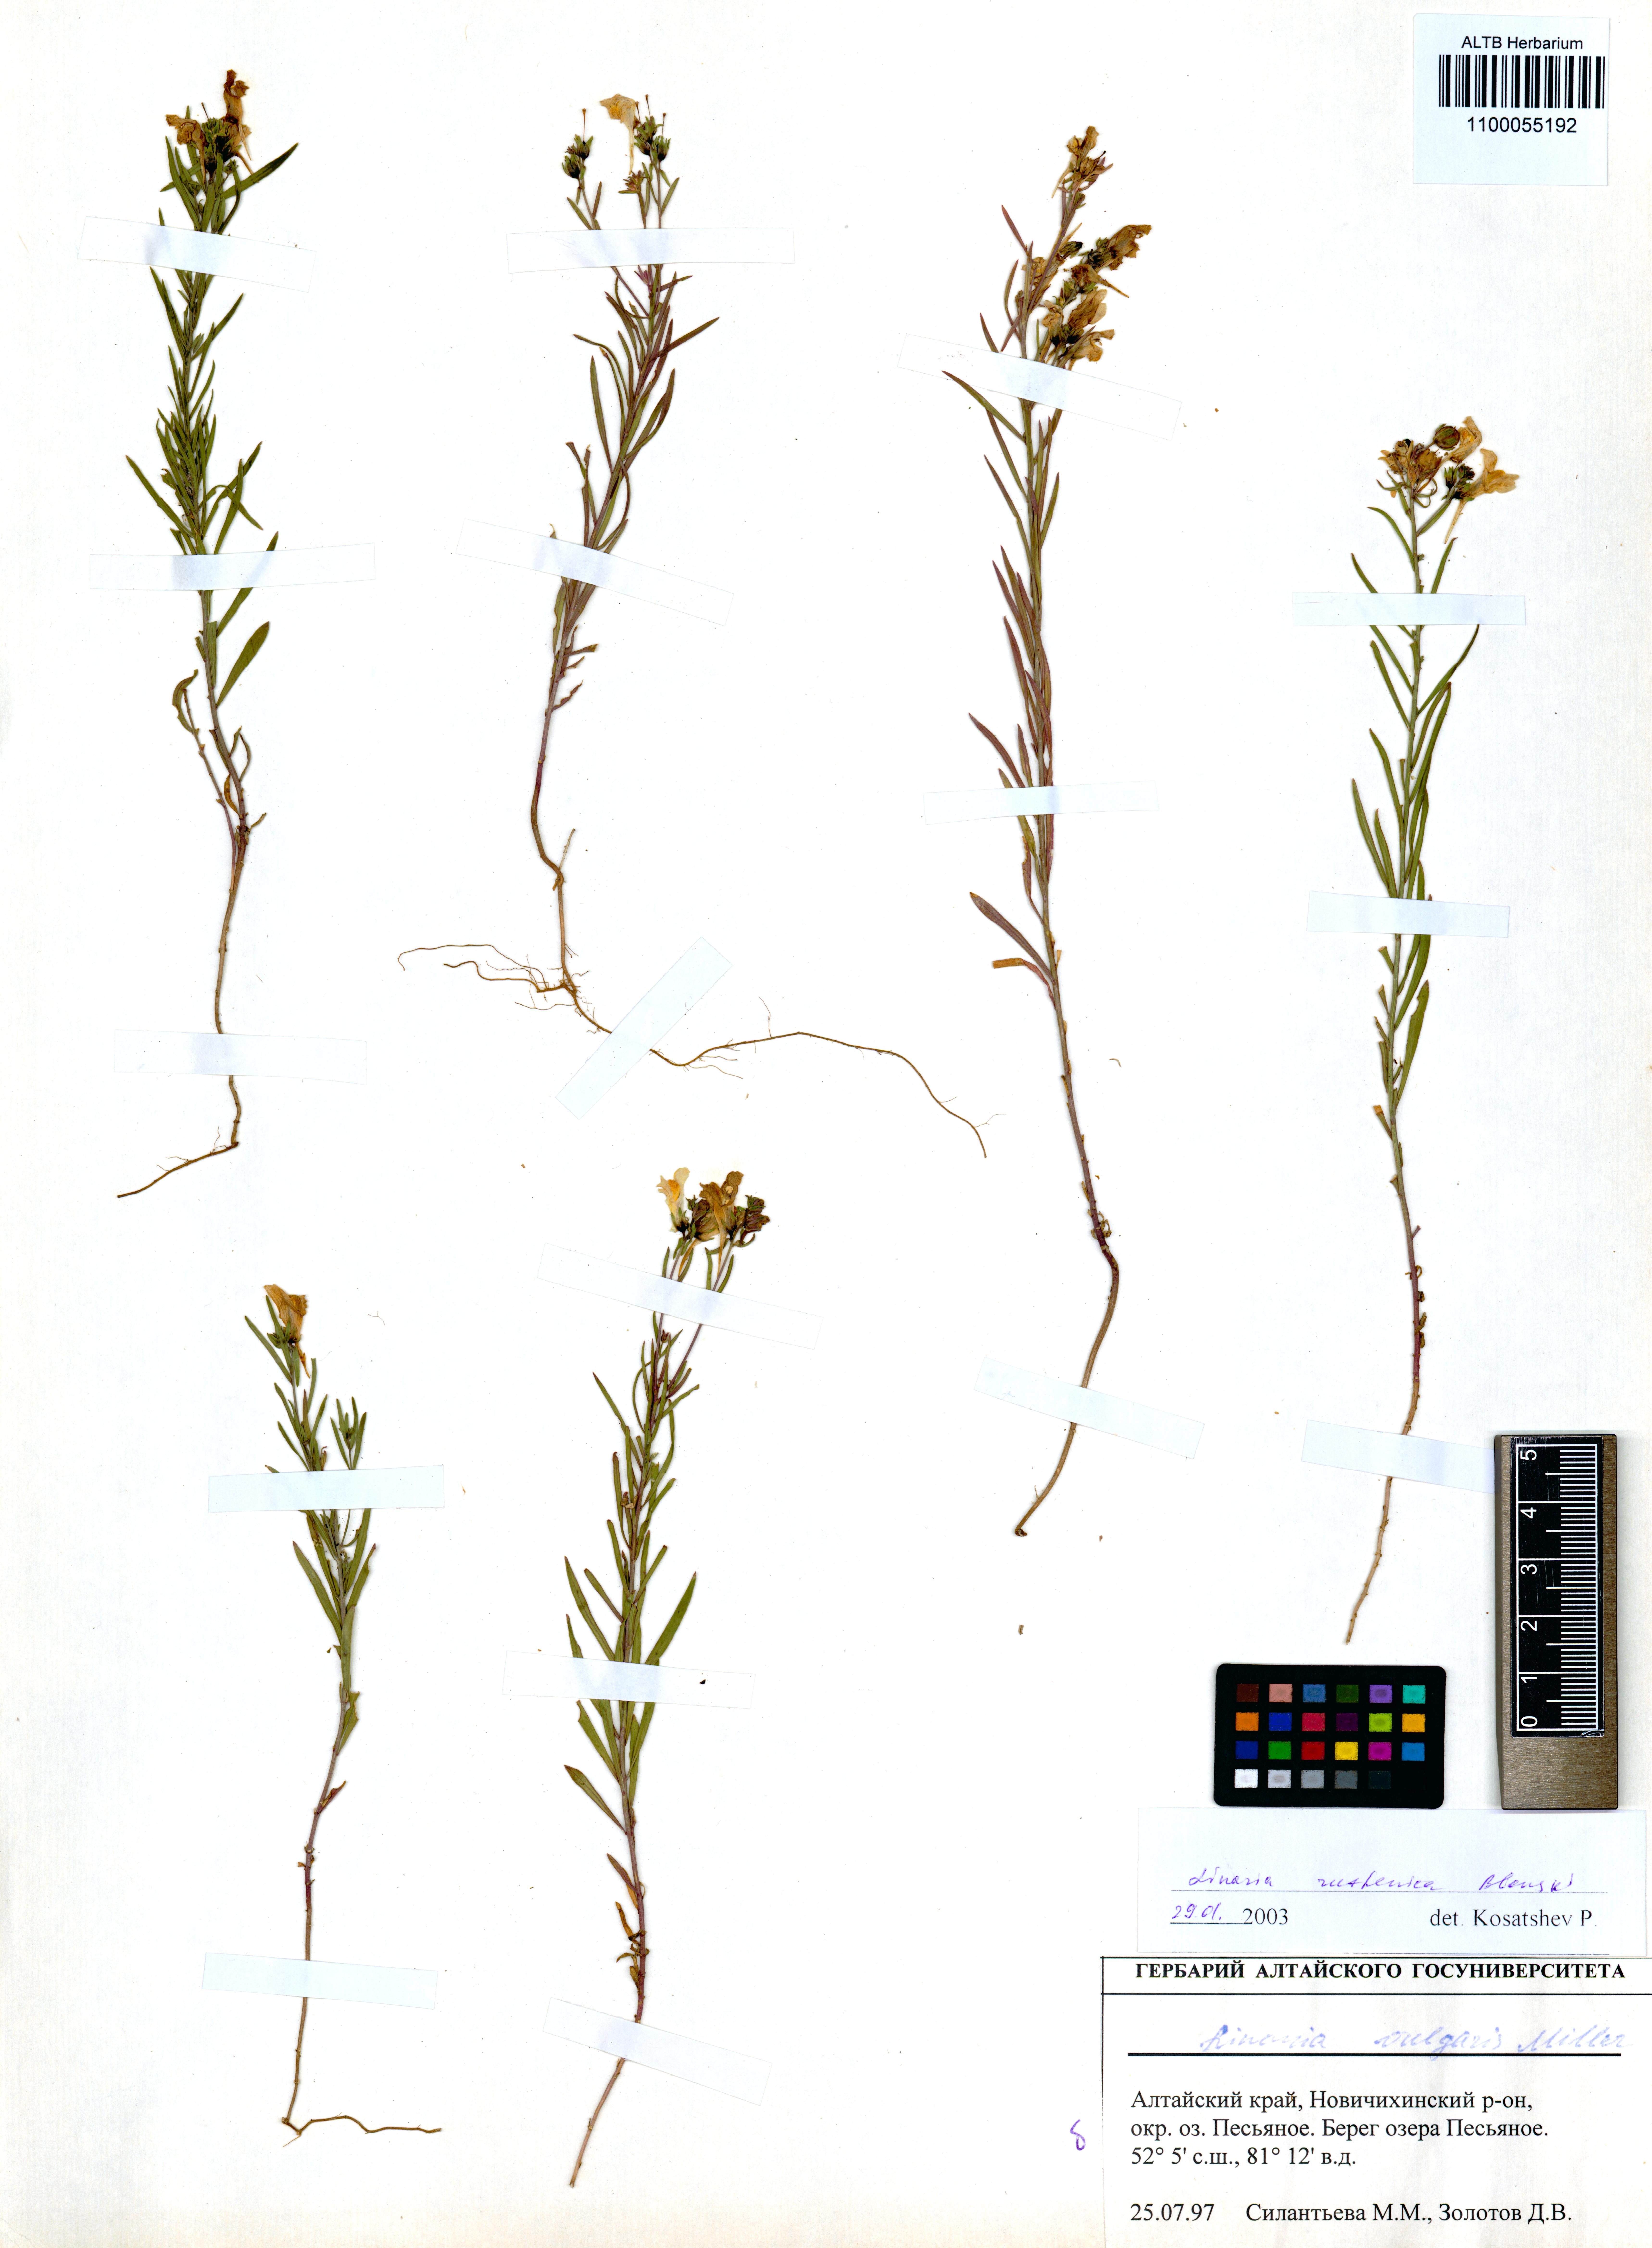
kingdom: Plantae
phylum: Tracheophyta
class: Magnoliopsida
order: Lamiales
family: Plantaginaceae
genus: Linaria
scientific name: Linaria biebersteinii
